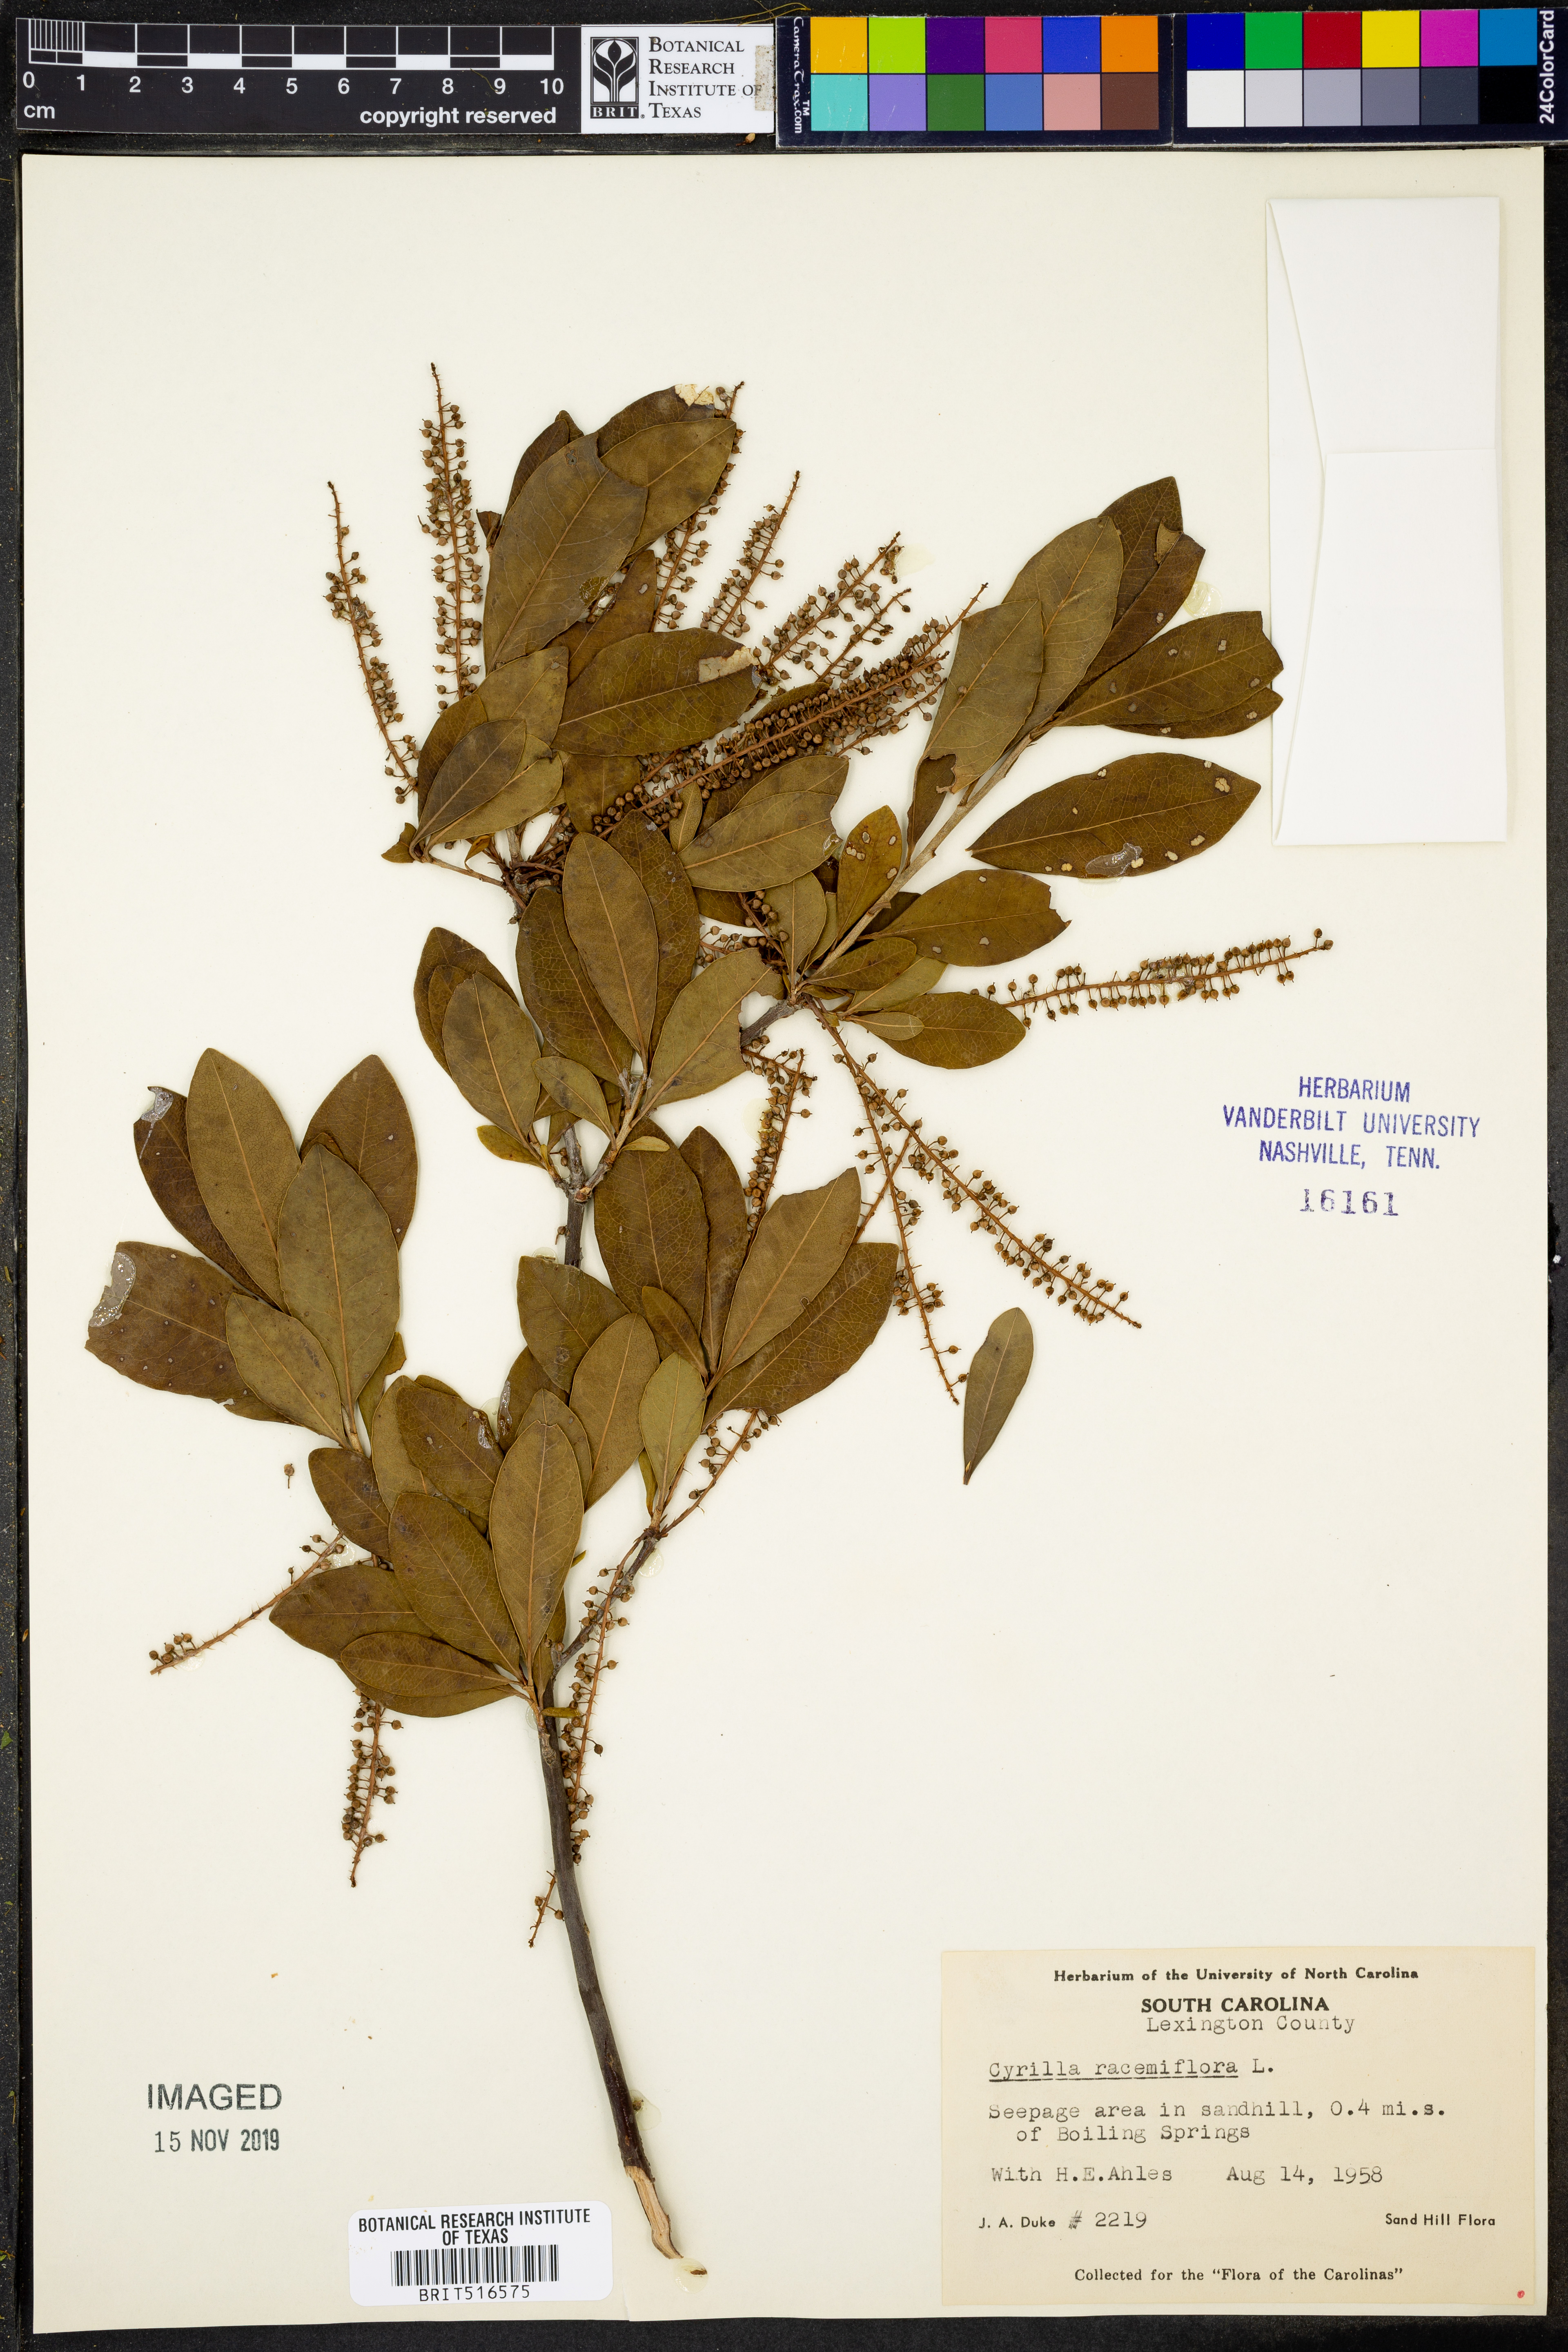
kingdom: Plantae
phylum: Tracheophyta
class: Magnoliopsida
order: Ericales
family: Cyrillaceae
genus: Cyrilla
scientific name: Cyrilla racemiflora
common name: Black titi
